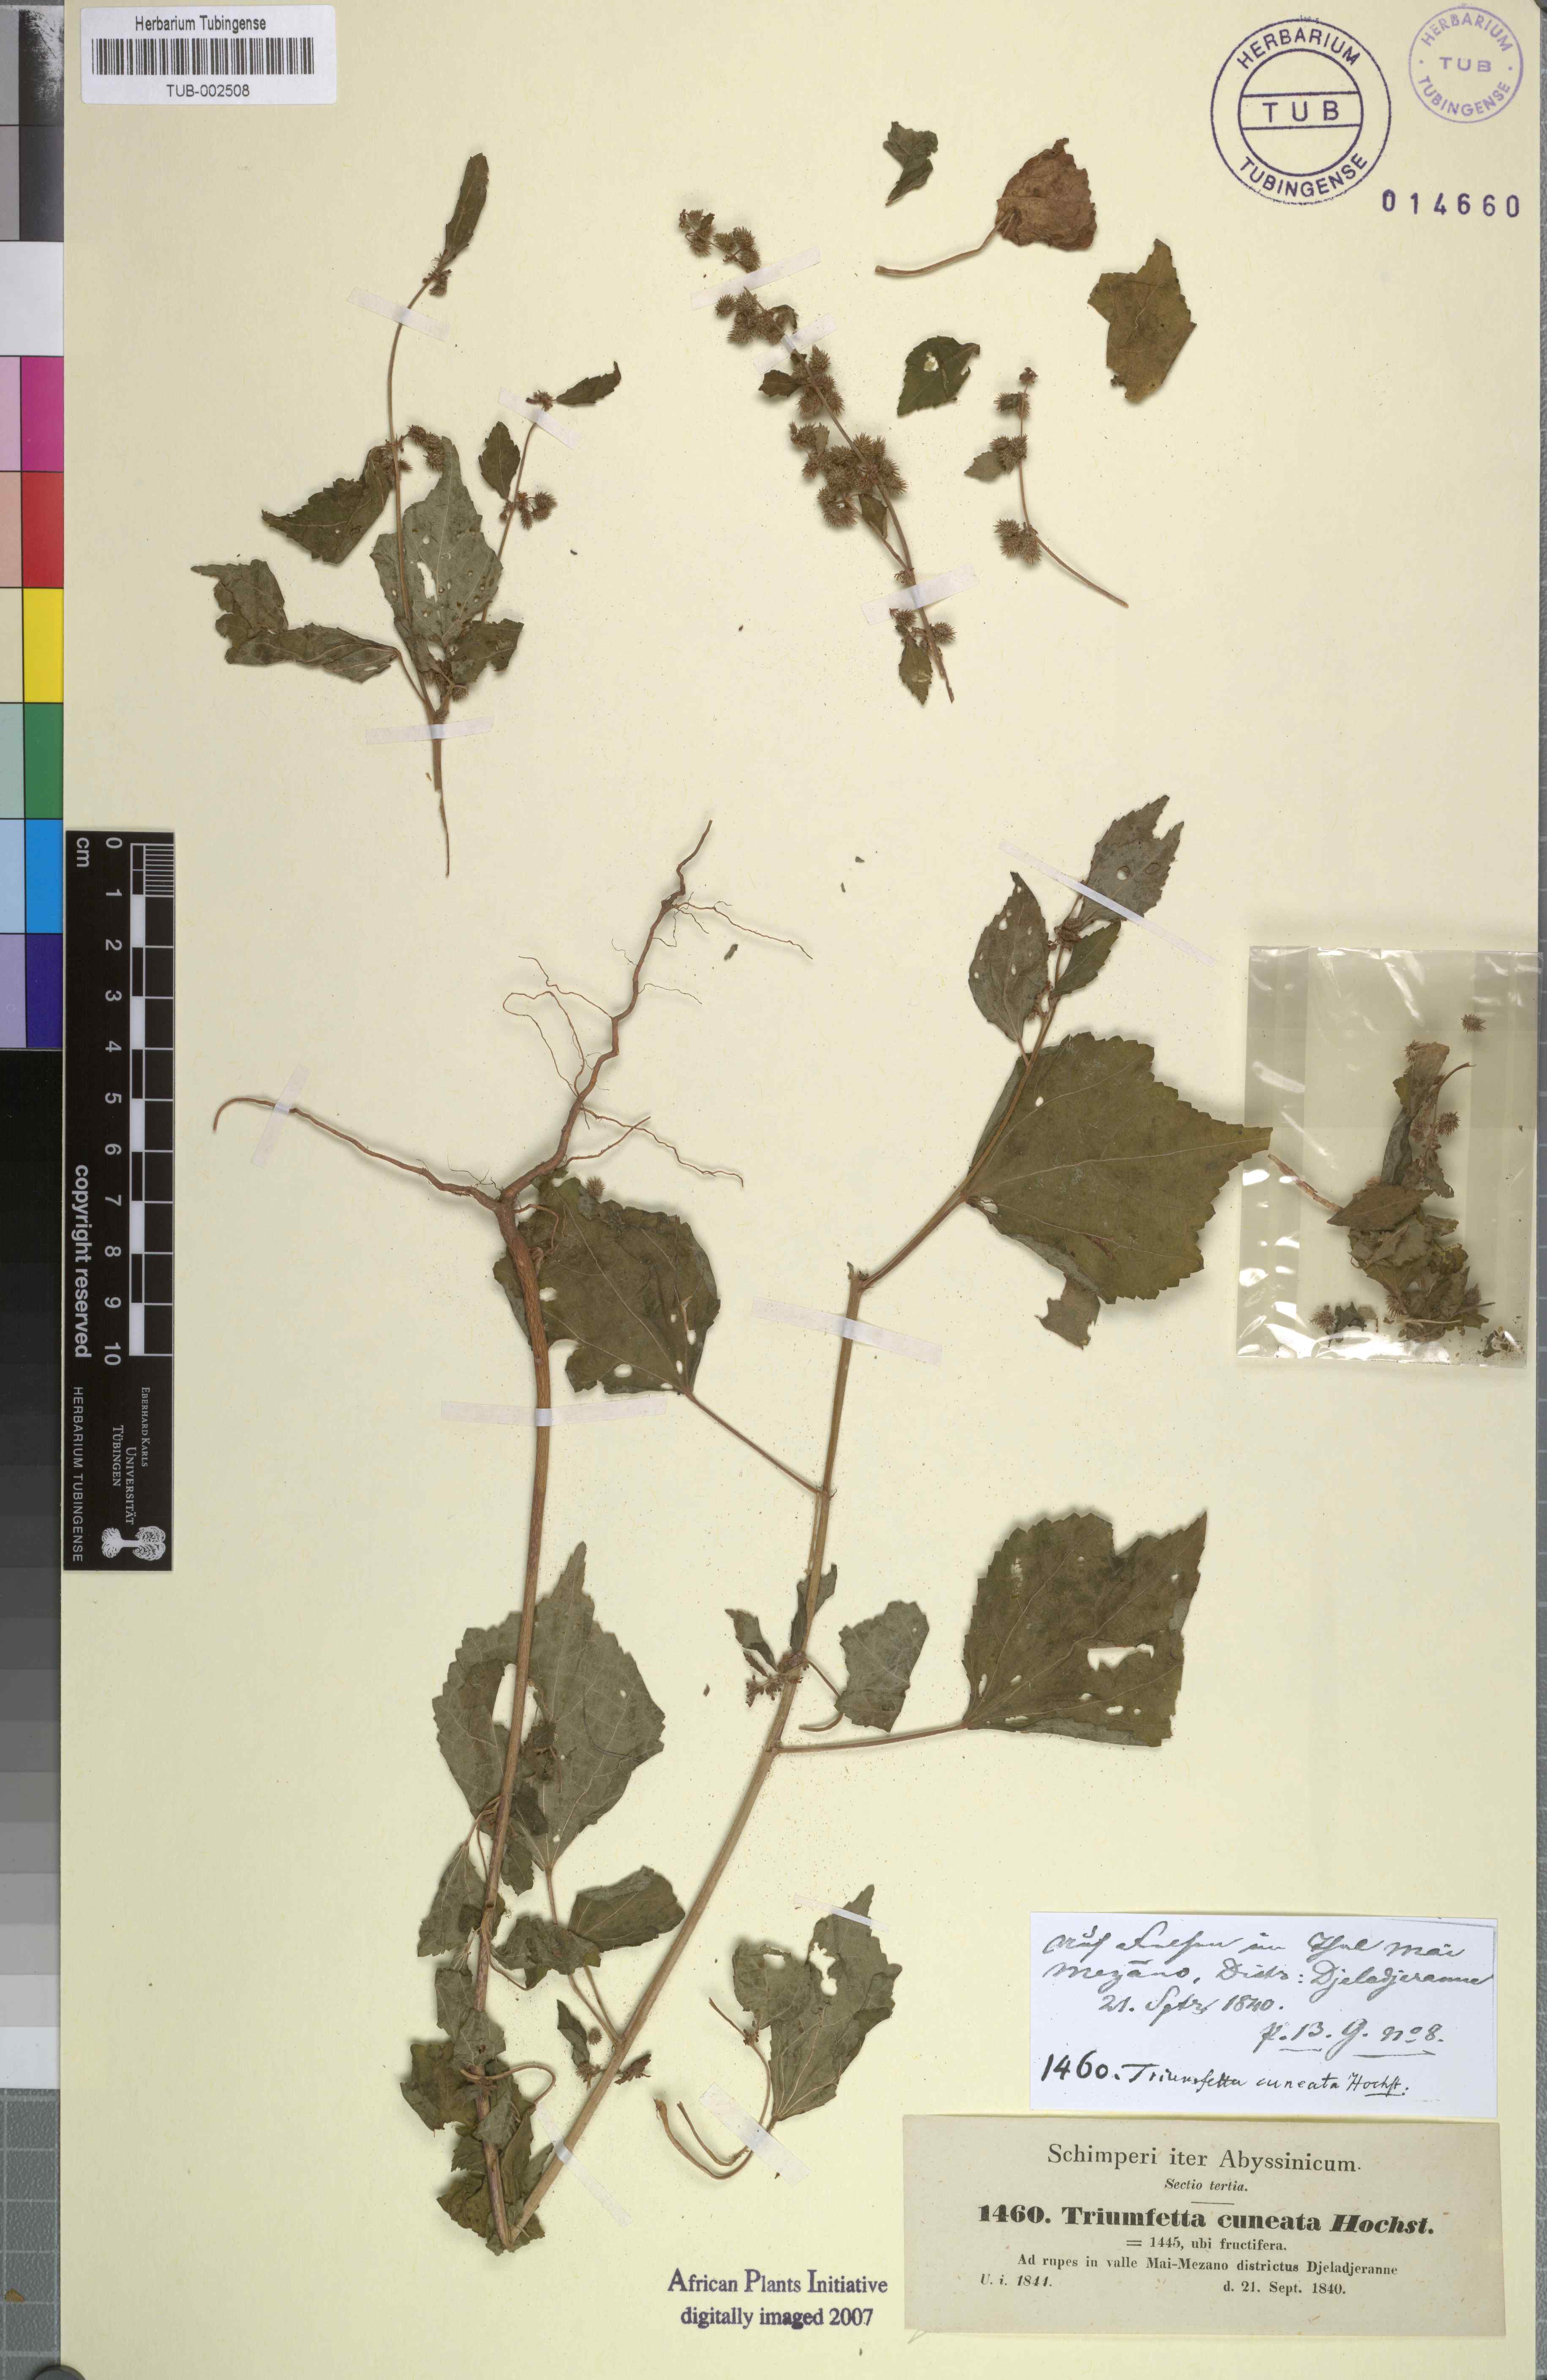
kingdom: Plantae
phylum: Tracheophyta
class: Magnoliopsida
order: Malvales
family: Malvaceae
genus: Triumfetta
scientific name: Triumfetta pentandra
